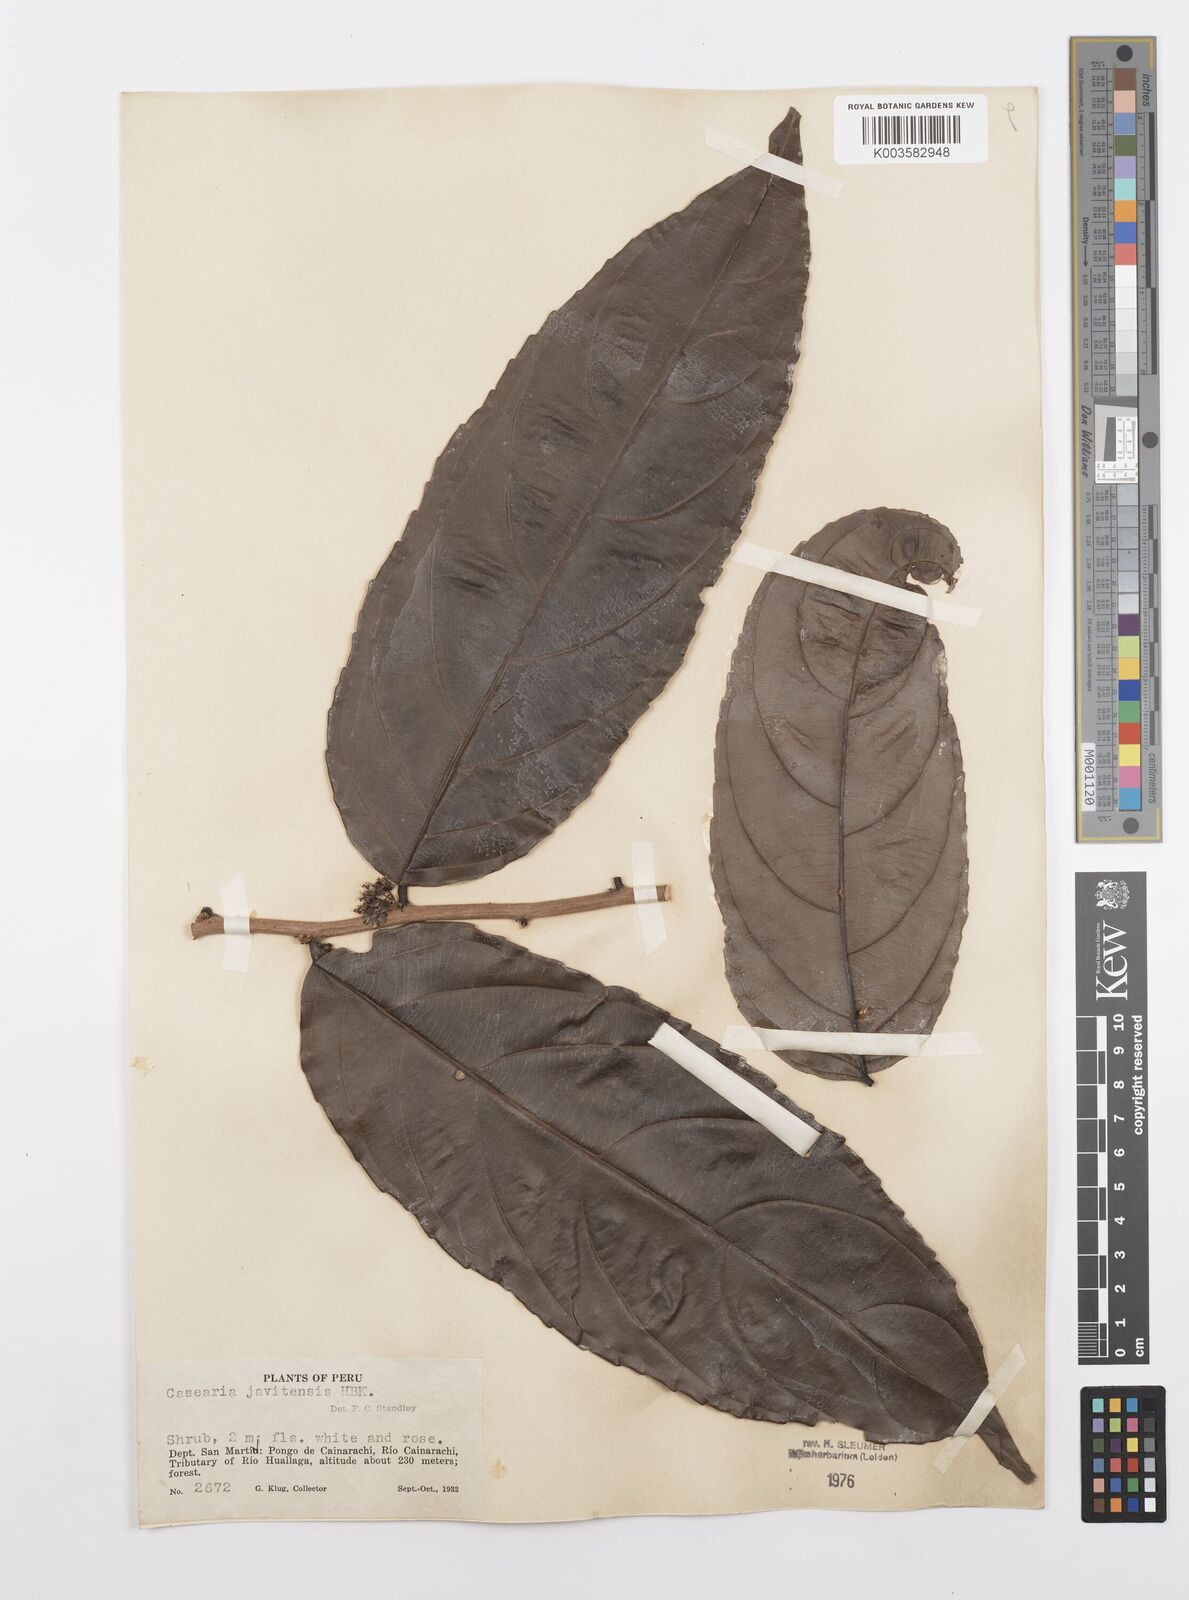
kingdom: Plantae
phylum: Tracheophyta
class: Magnoliopsida
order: Malpighiales
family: Salicaceae
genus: Piparea
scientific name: Piparea multiflora
